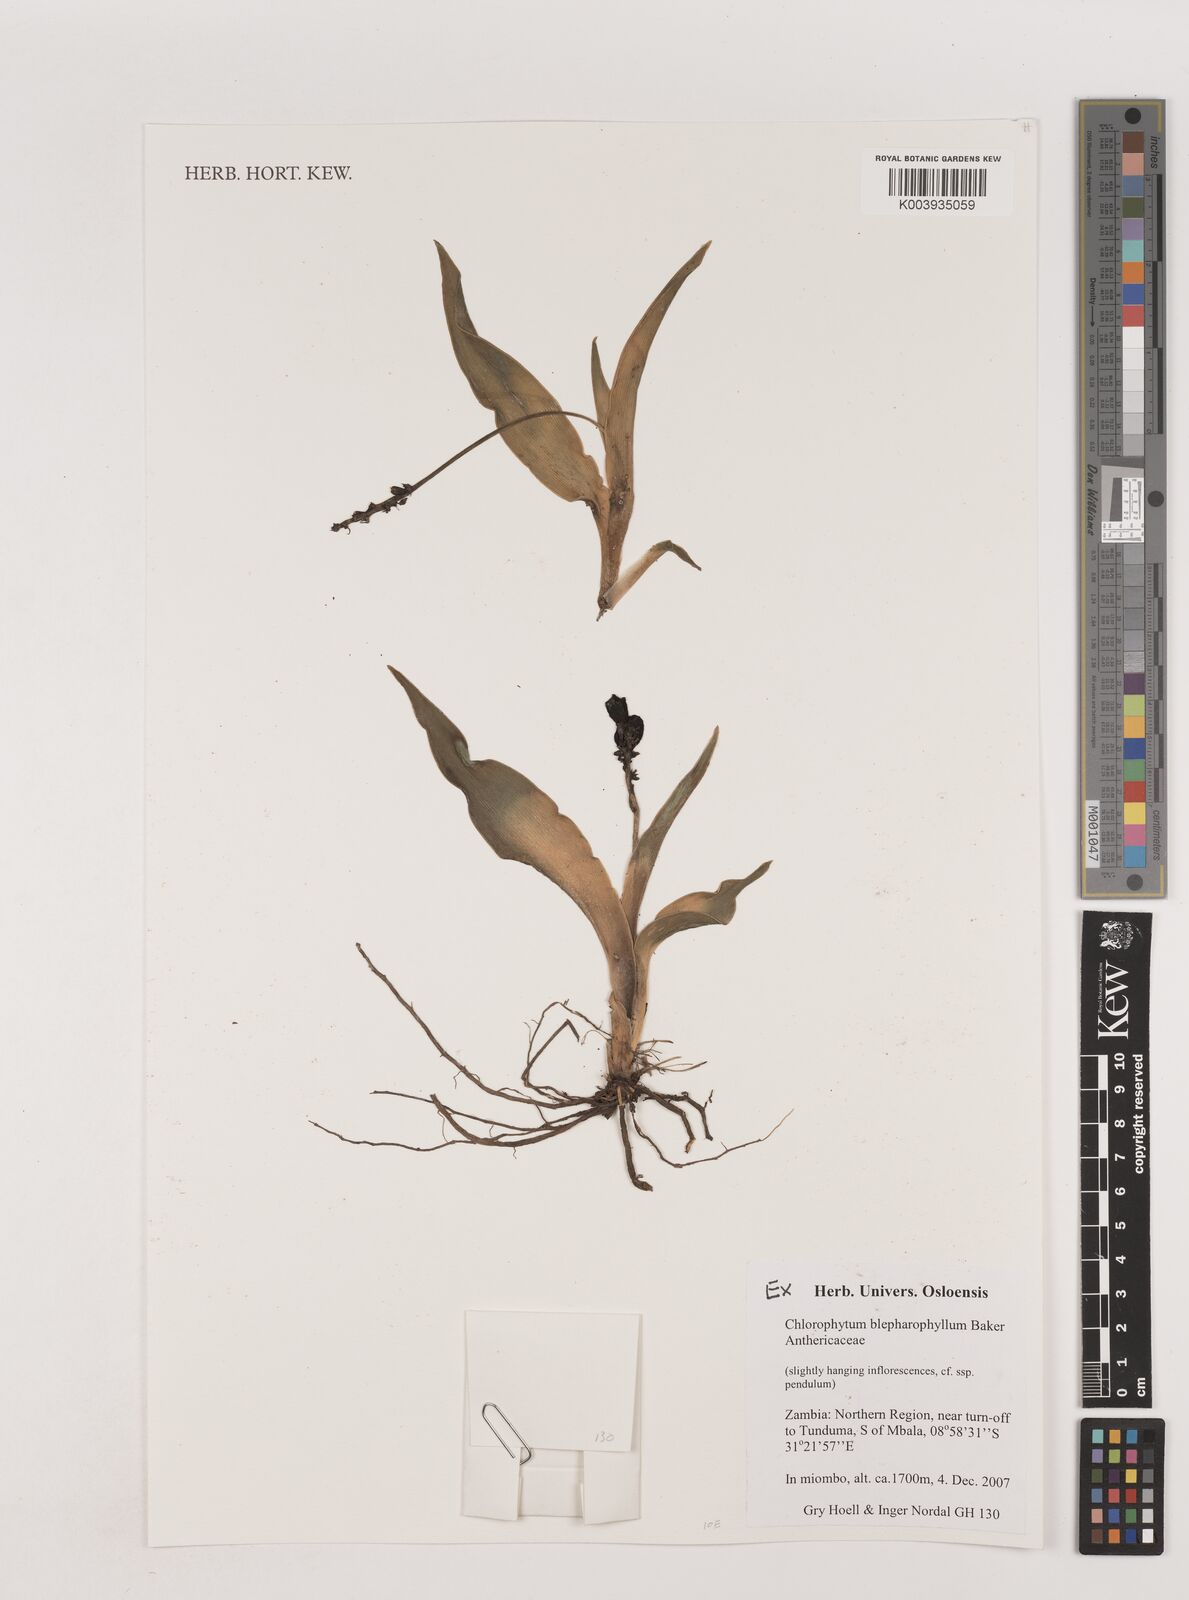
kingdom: Plantae
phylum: Tracheophyta
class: Liliopsida
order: Asparagales
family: Asparagaceae
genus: Chlorophytum
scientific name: Chlorophytum blepharophyllum
